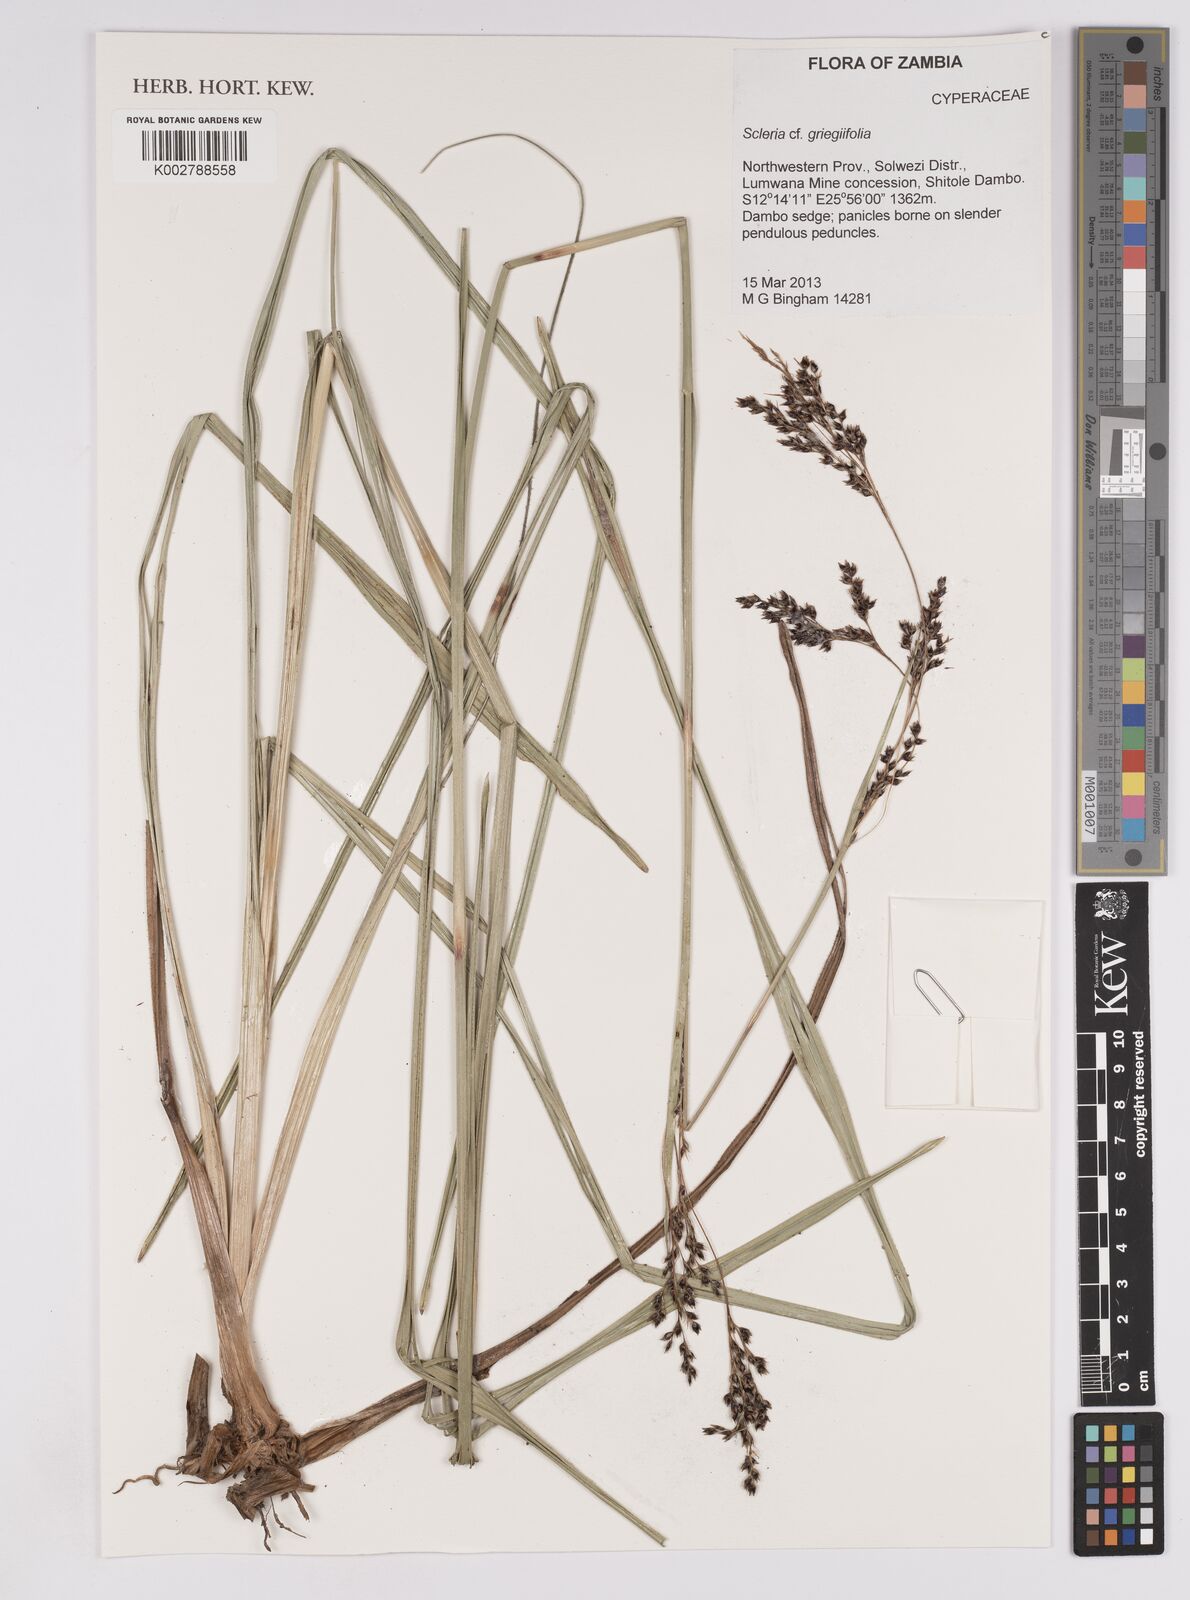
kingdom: Plantae
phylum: Tracheophyta
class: Liliopsida
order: Poales
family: Cyperaceae
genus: Scleria
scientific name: Scleria greigiifolia
